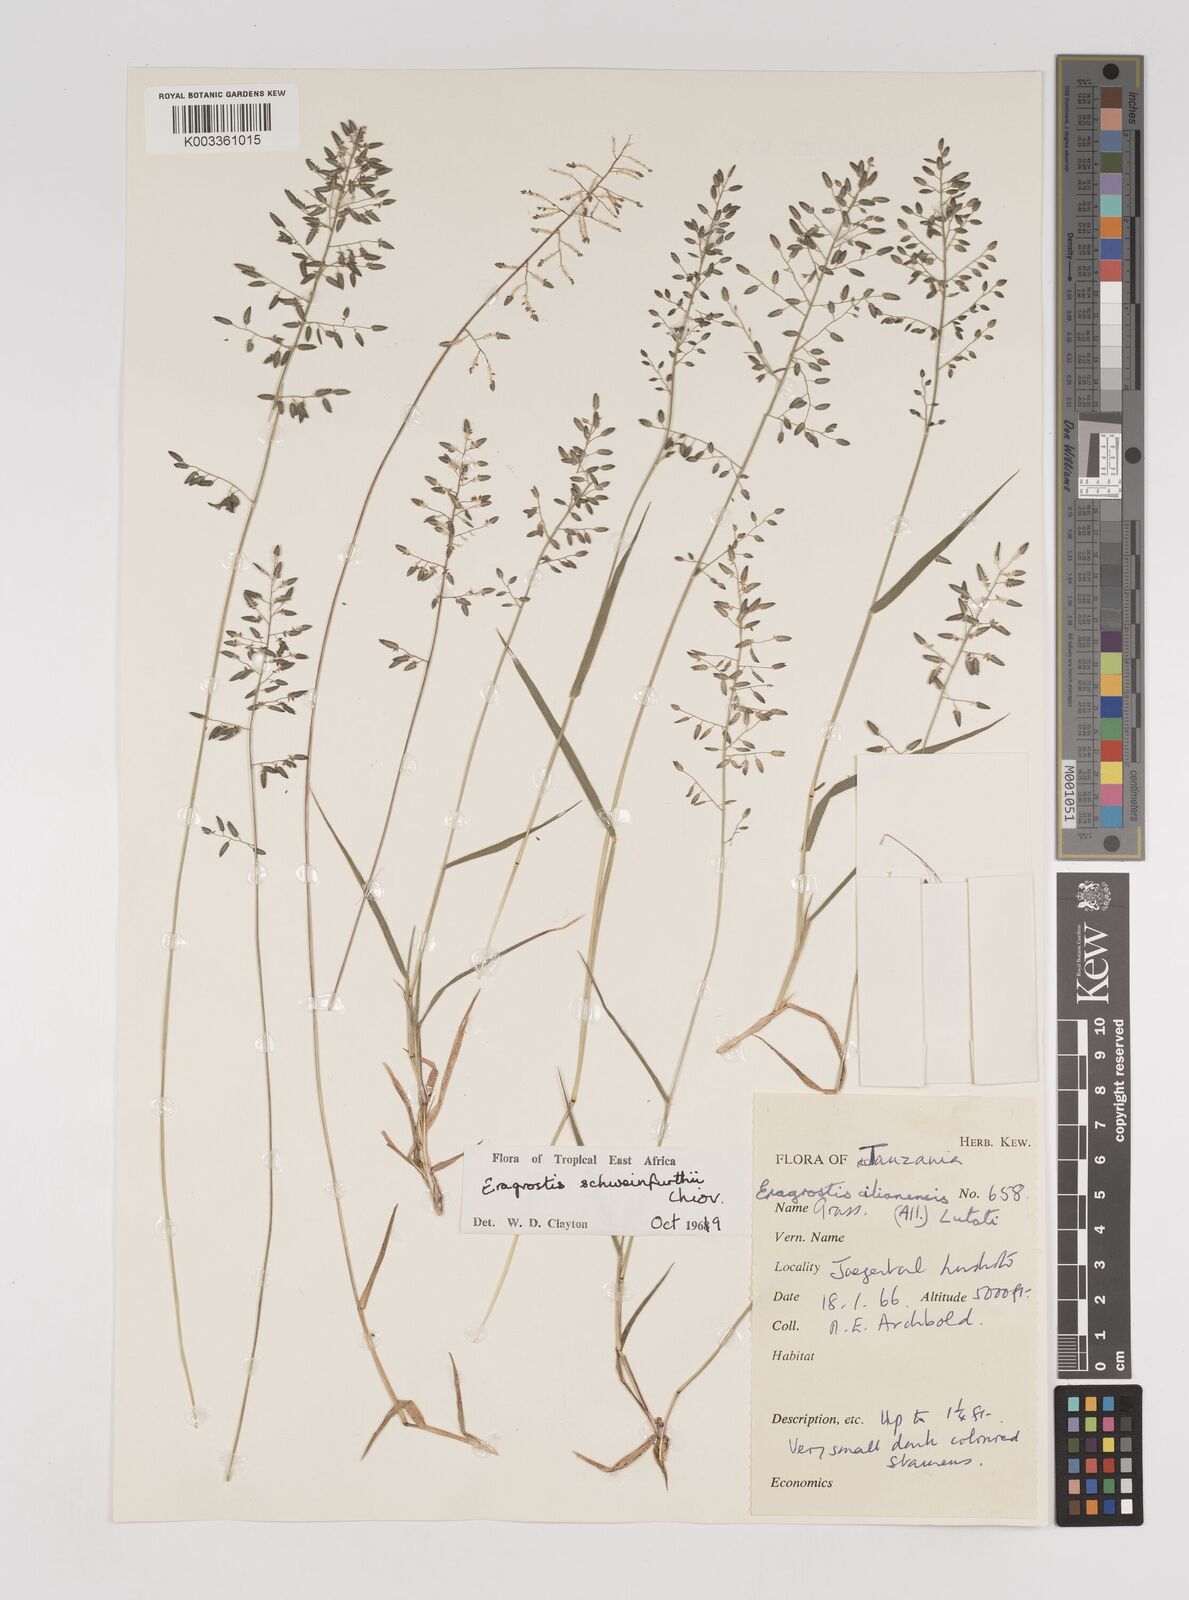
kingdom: Plantae
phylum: Tracheophyta
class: Liliopsida
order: Poales
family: Poaceae
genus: Eragrostis
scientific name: Eragrostis schweinfurthii
